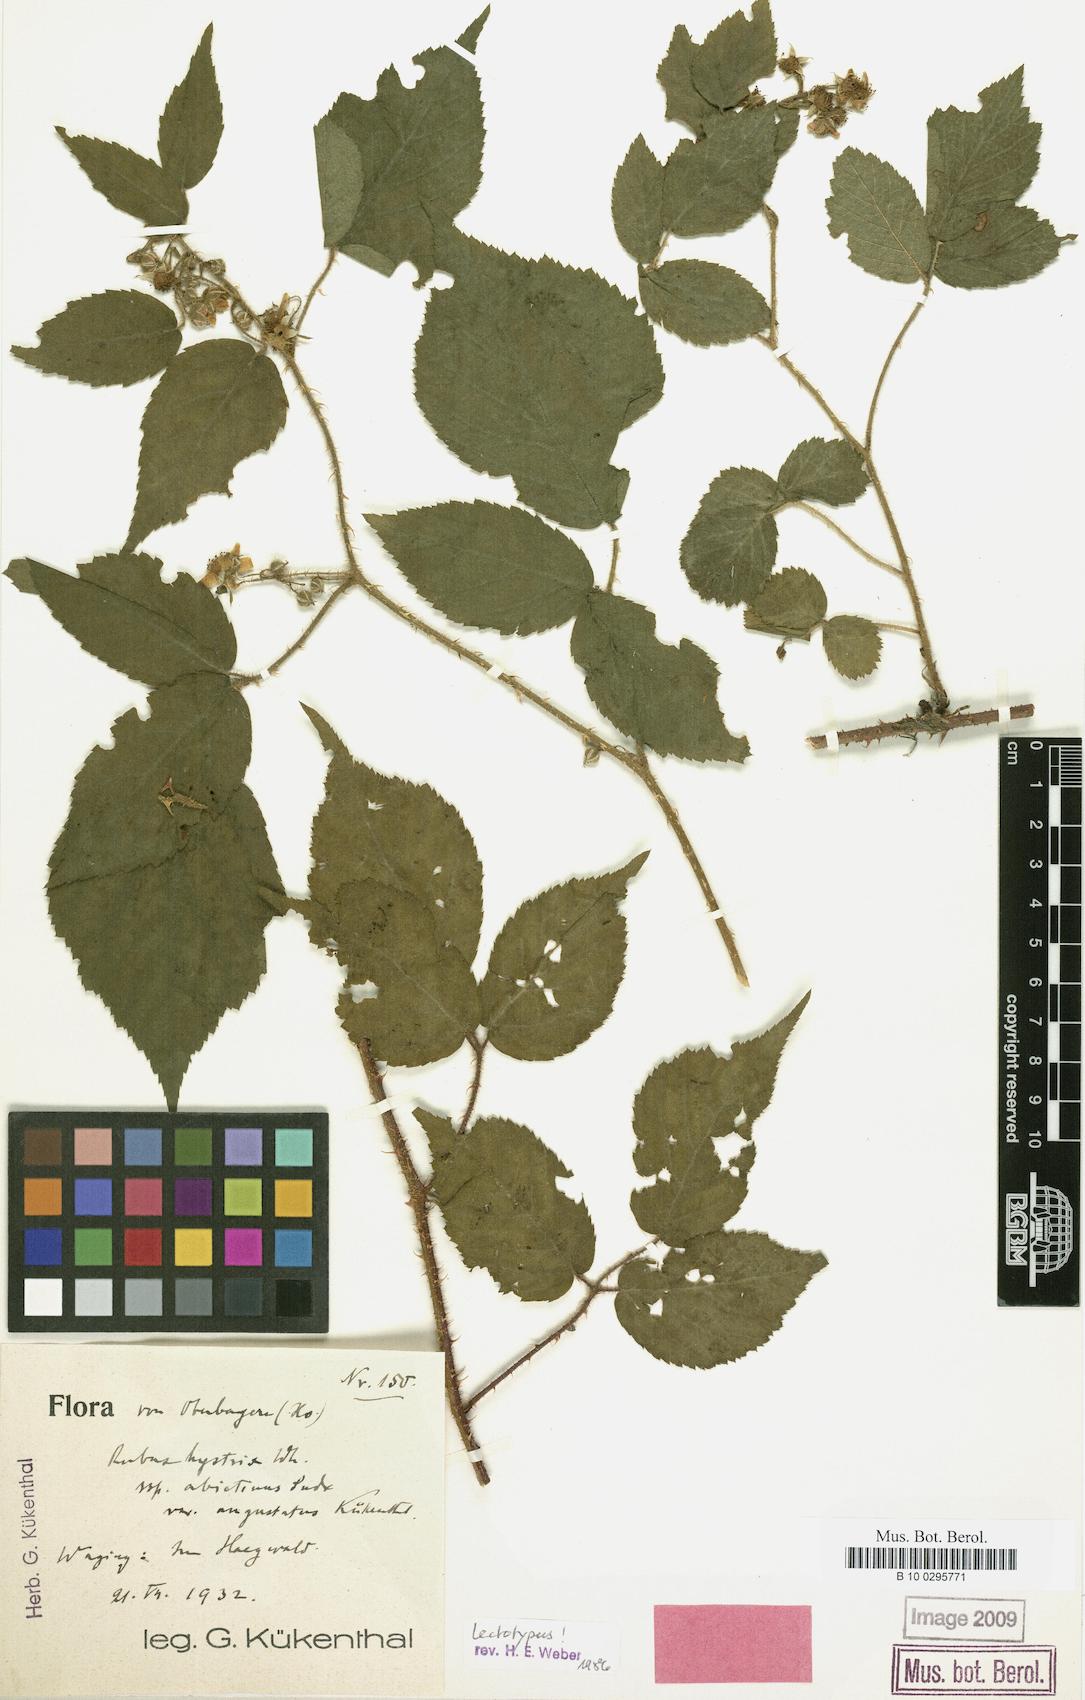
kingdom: Plantae
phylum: Tracheophyta
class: Magnoliopsida
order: Rosales
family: Rosaceae
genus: Rubus
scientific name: Rubus
